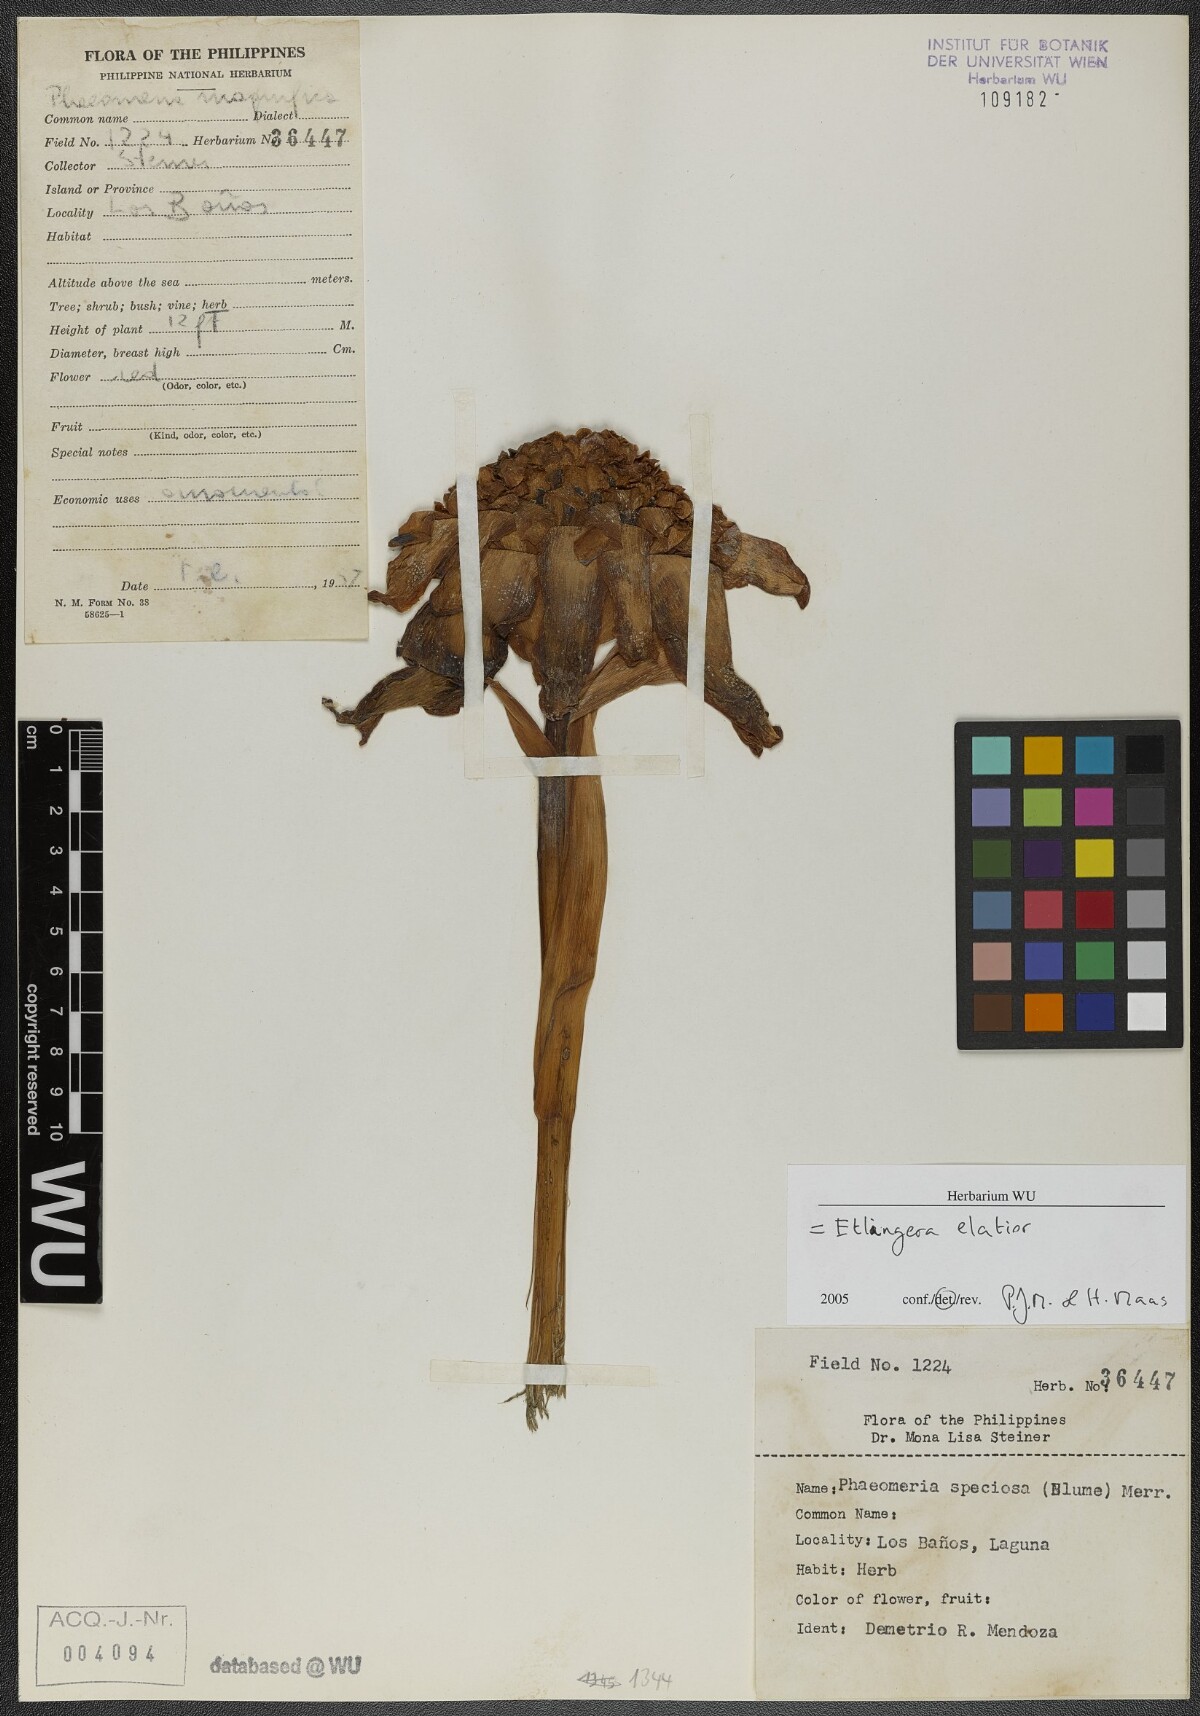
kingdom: Plantae
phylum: Tracheophyta
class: Liliopsida
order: Zingiberales
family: Zingiberaceae
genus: Etlingera
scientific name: Etlingera elatior
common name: Philippine waxflower
